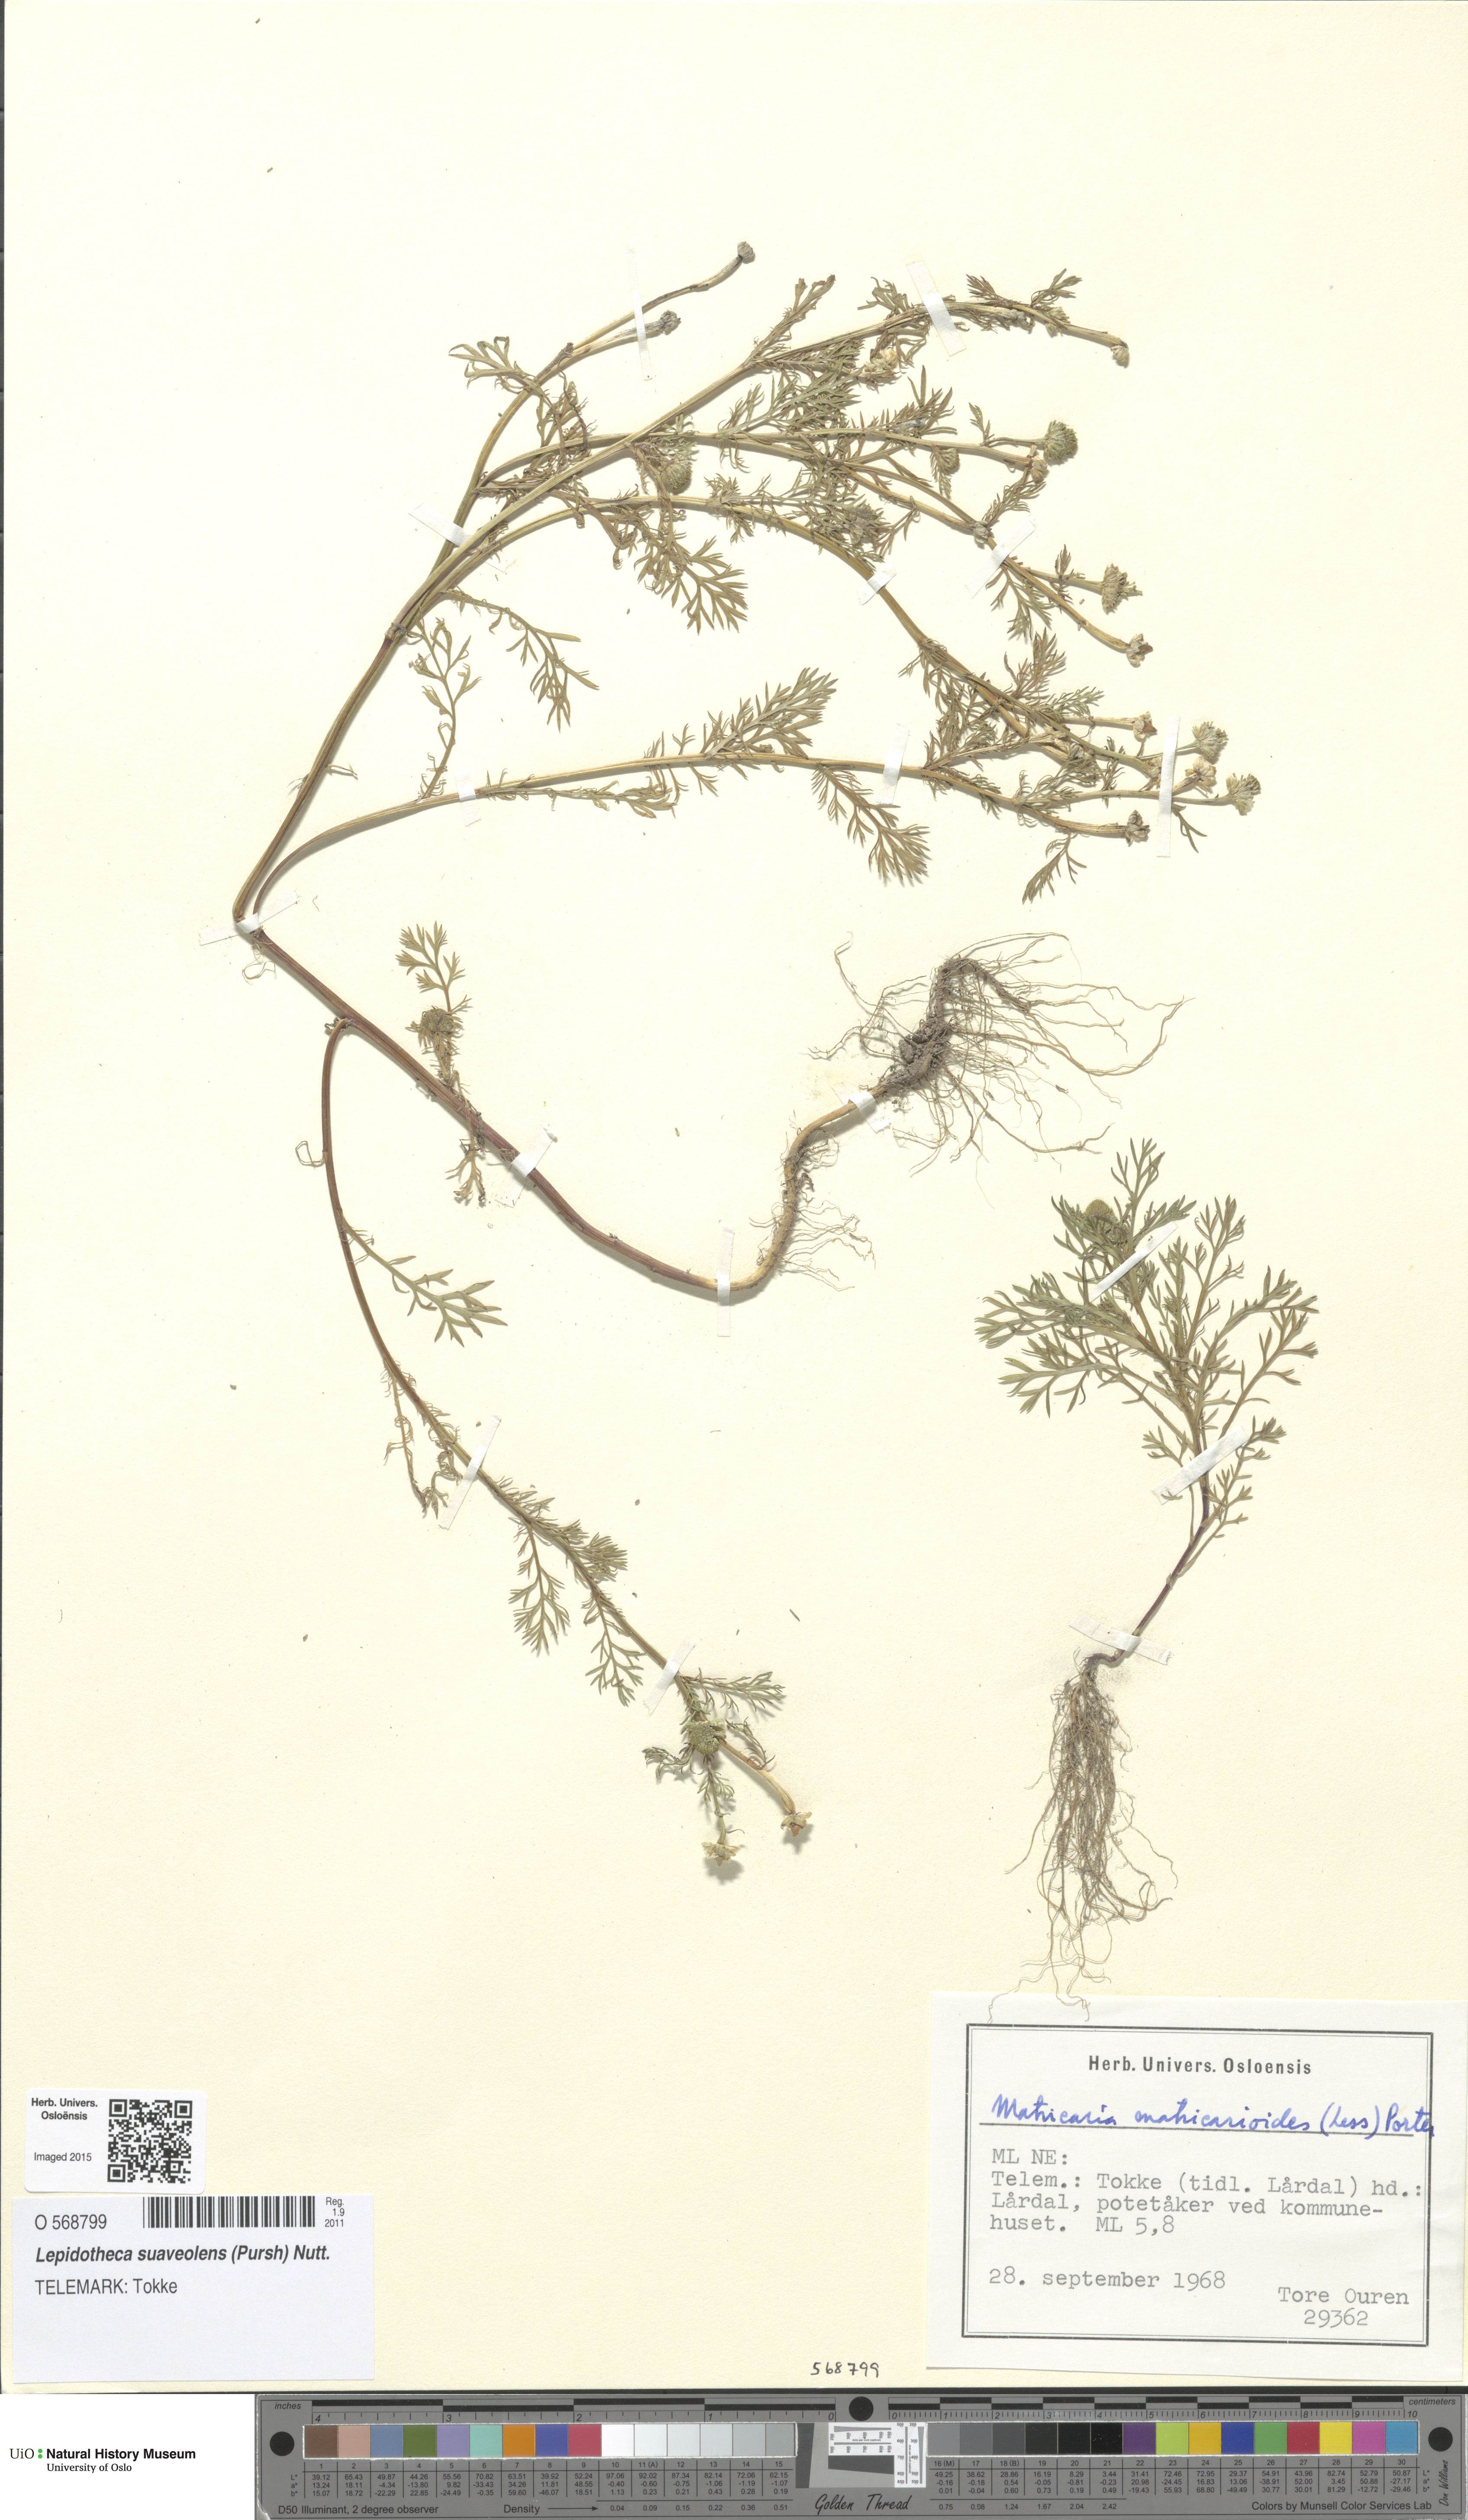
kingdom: Plantae
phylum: Tracheophyta
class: Magnoliopsida
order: Asterales
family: Asteraceae
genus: Matricaria
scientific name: Matricaria discoidea
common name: Disc mayweed
